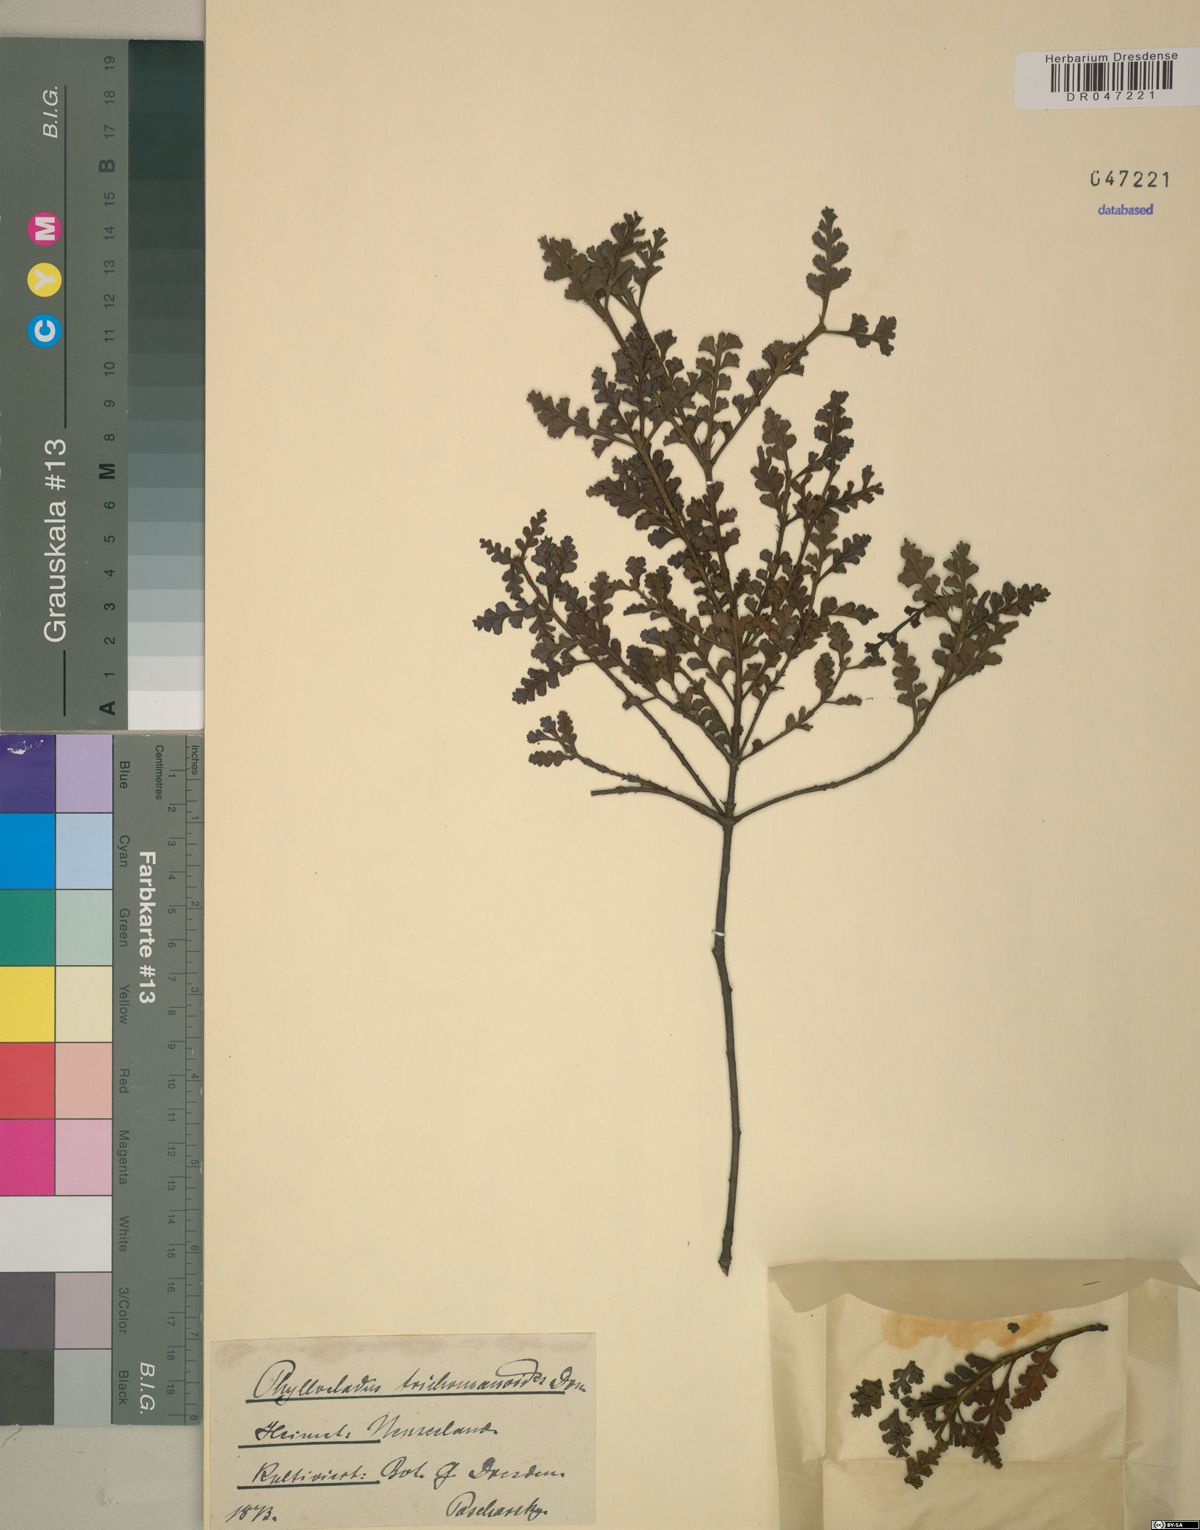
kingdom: Plantae
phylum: Tracheophyta
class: Pinopsida
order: Pinales
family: Phyllocladaceae
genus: Phyllocladus
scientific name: Phyllocladus trichomanoides
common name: Celery pine
